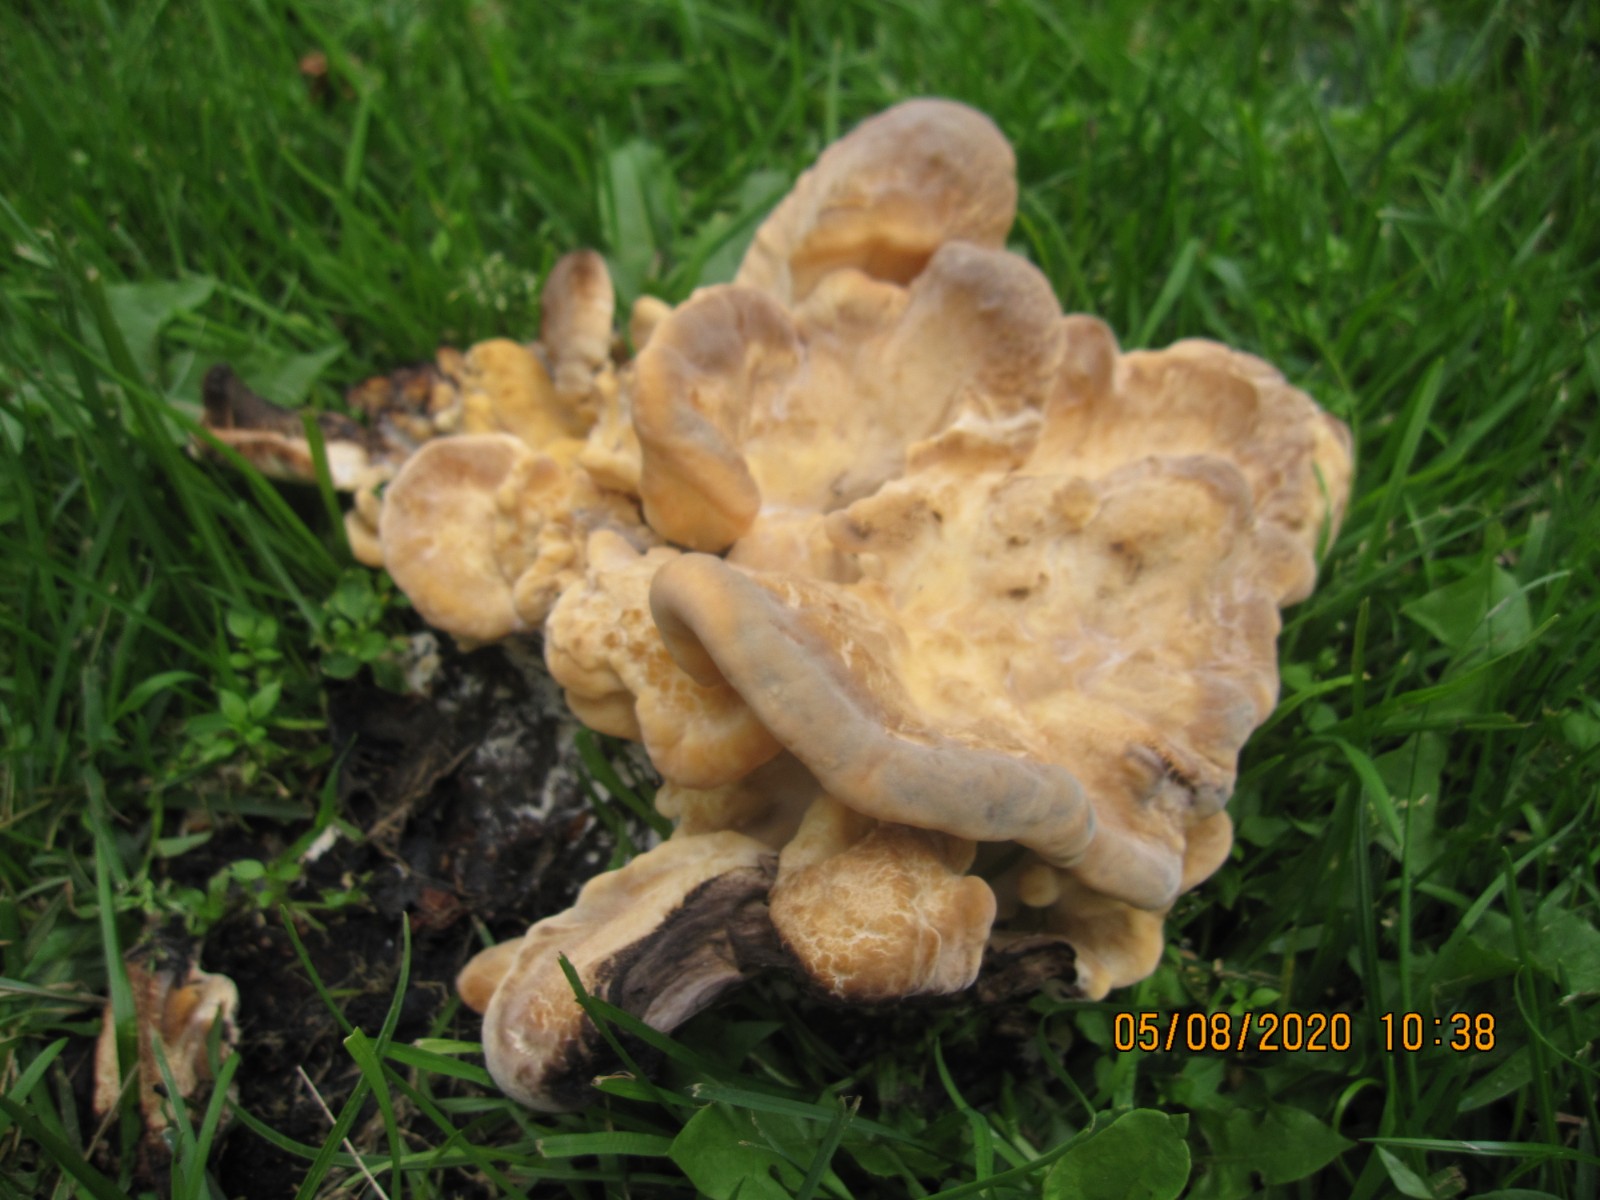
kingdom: Fungi
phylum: Basidiomycota
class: Agaricomycetes
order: Polyporales
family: Meripilaceae
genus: Meripilus
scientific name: Meripilus giganteus
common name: kæmpeporesvamp
